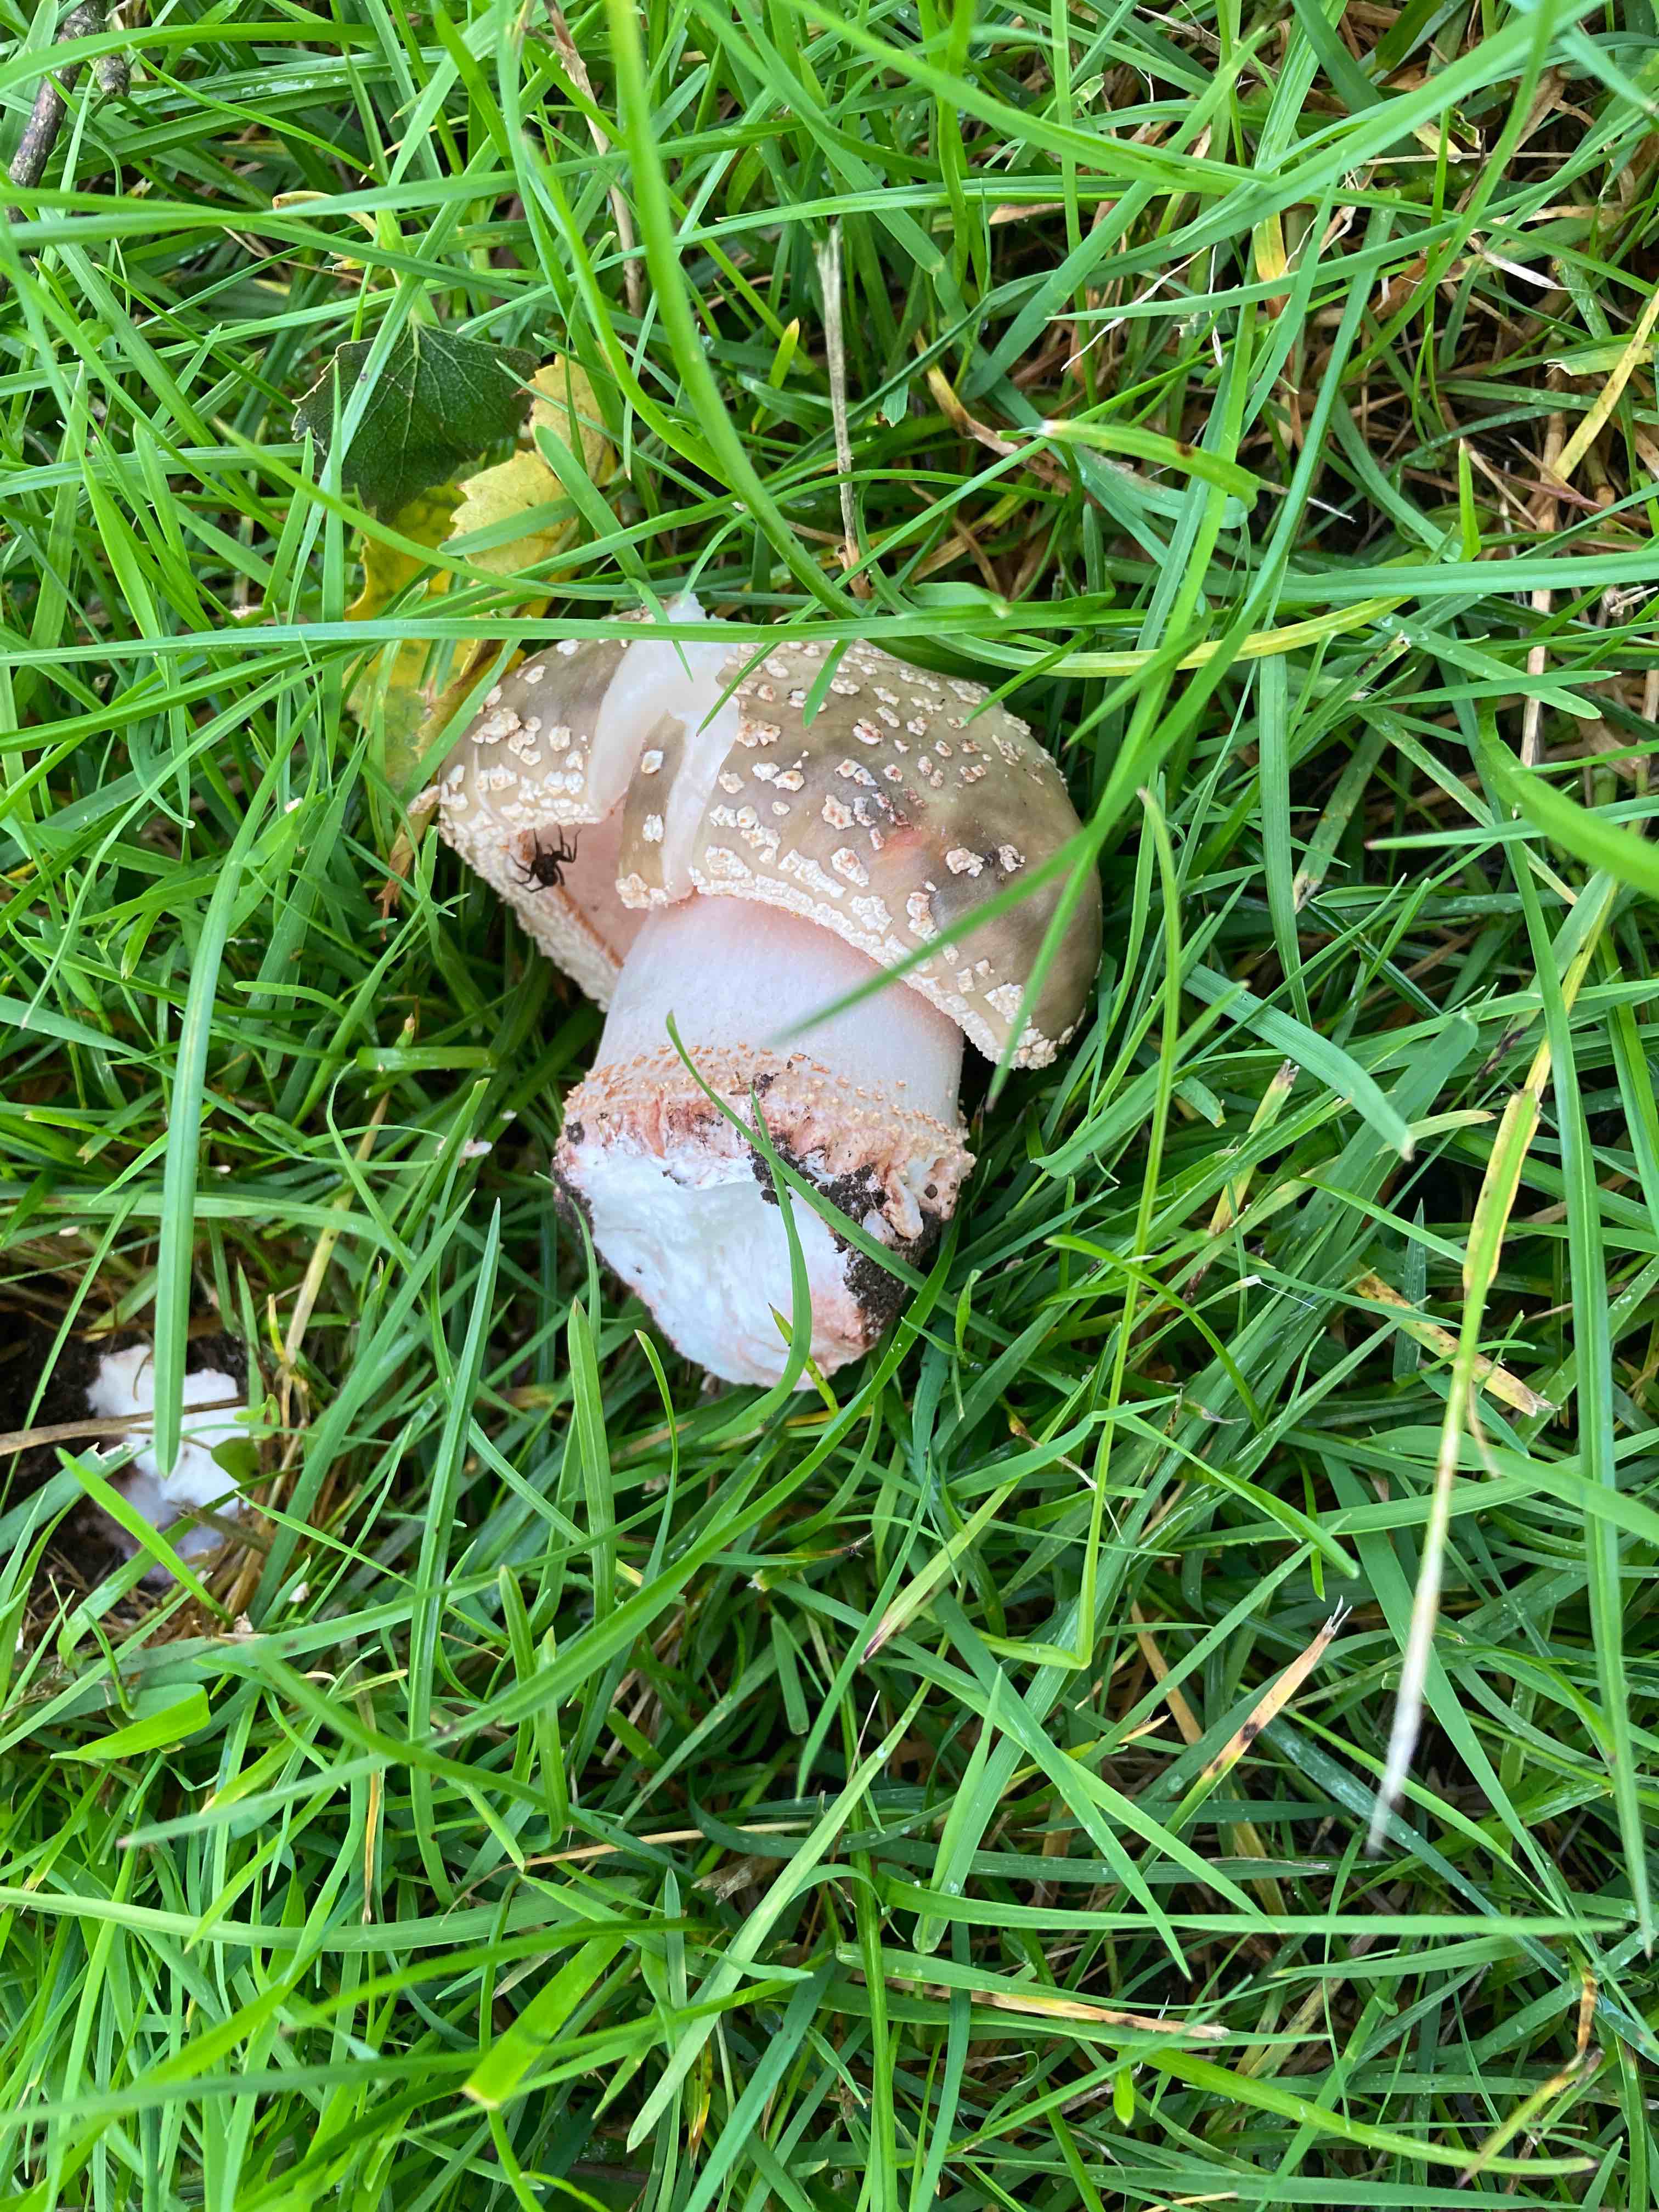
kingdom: Fungi
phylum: Basidiomycota
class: Agaricomycetes
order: Agaricales
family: Amanitaceae
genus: Amanita
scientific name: Amanita rubescens
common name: rødmende fluesvamp
